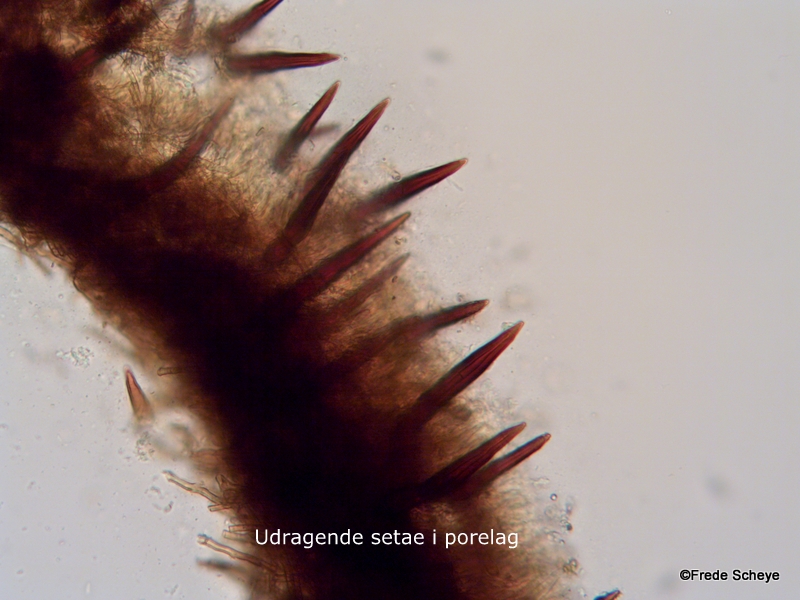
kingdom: Fungi
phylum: Basidiomycota
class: Agaricomycetes
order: Hymenochaetales
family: Hymenochaetaceae
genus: Hydnoporia
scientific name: Hydnoporia tabacina
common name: tobaksbrun ruslædersvamp
